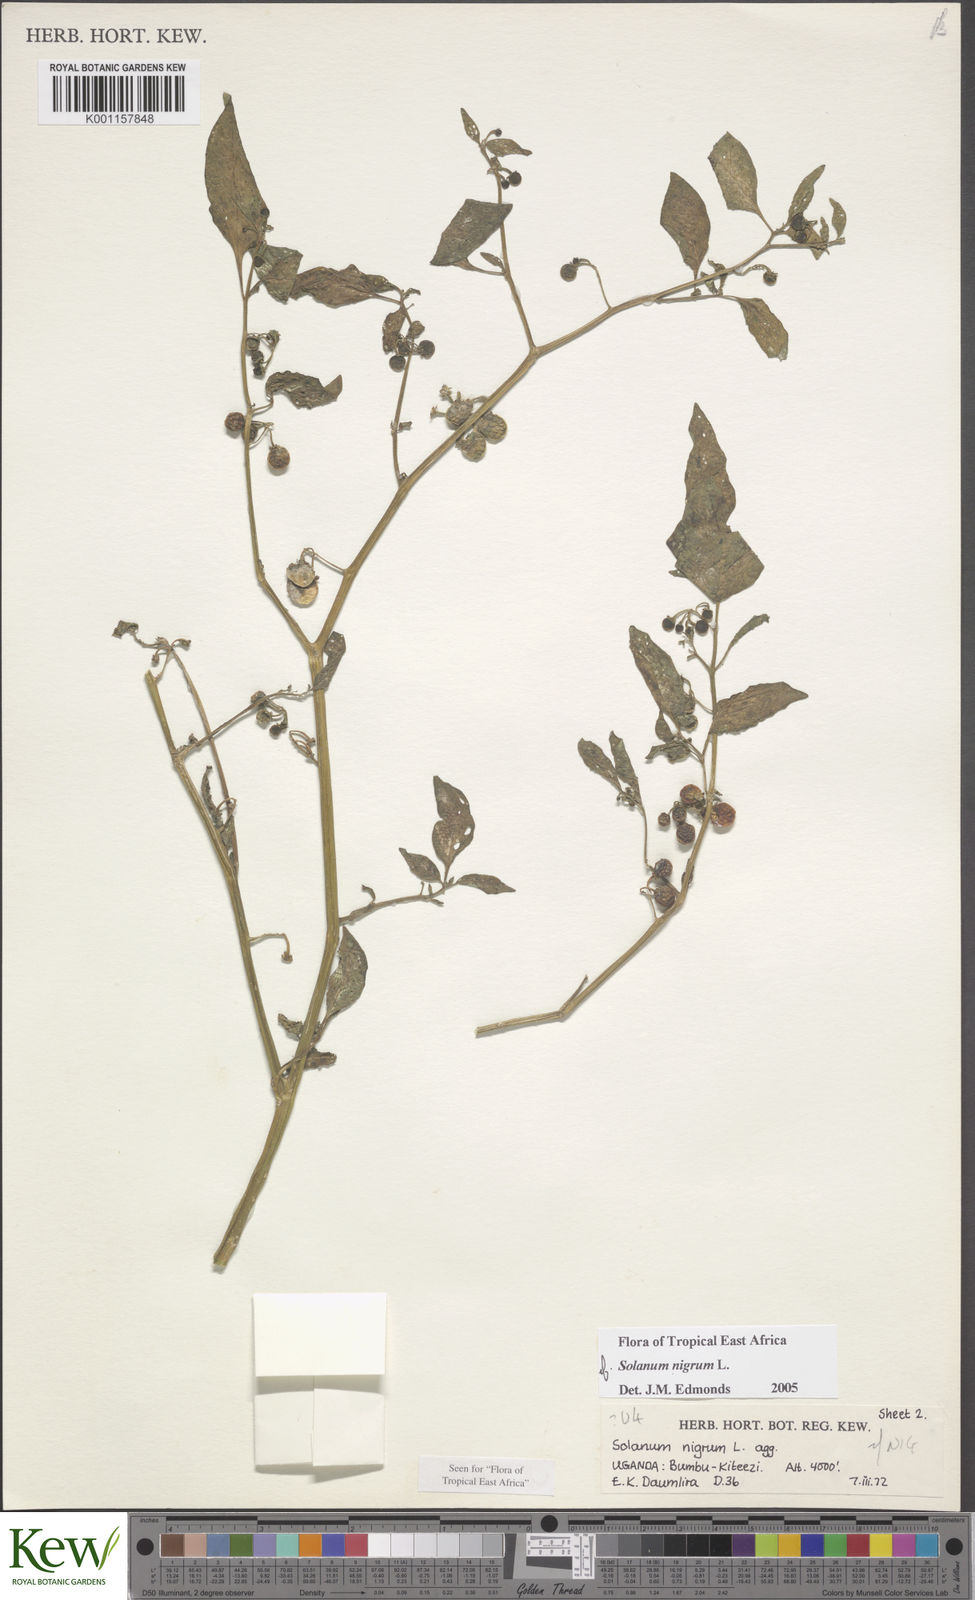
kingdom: Plantae
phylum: Tracheophyta
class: Magnoliopsida
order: Solanales
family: Solanaceae
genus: Solanum
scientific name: Solanum nigrum
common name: Black nightshade
